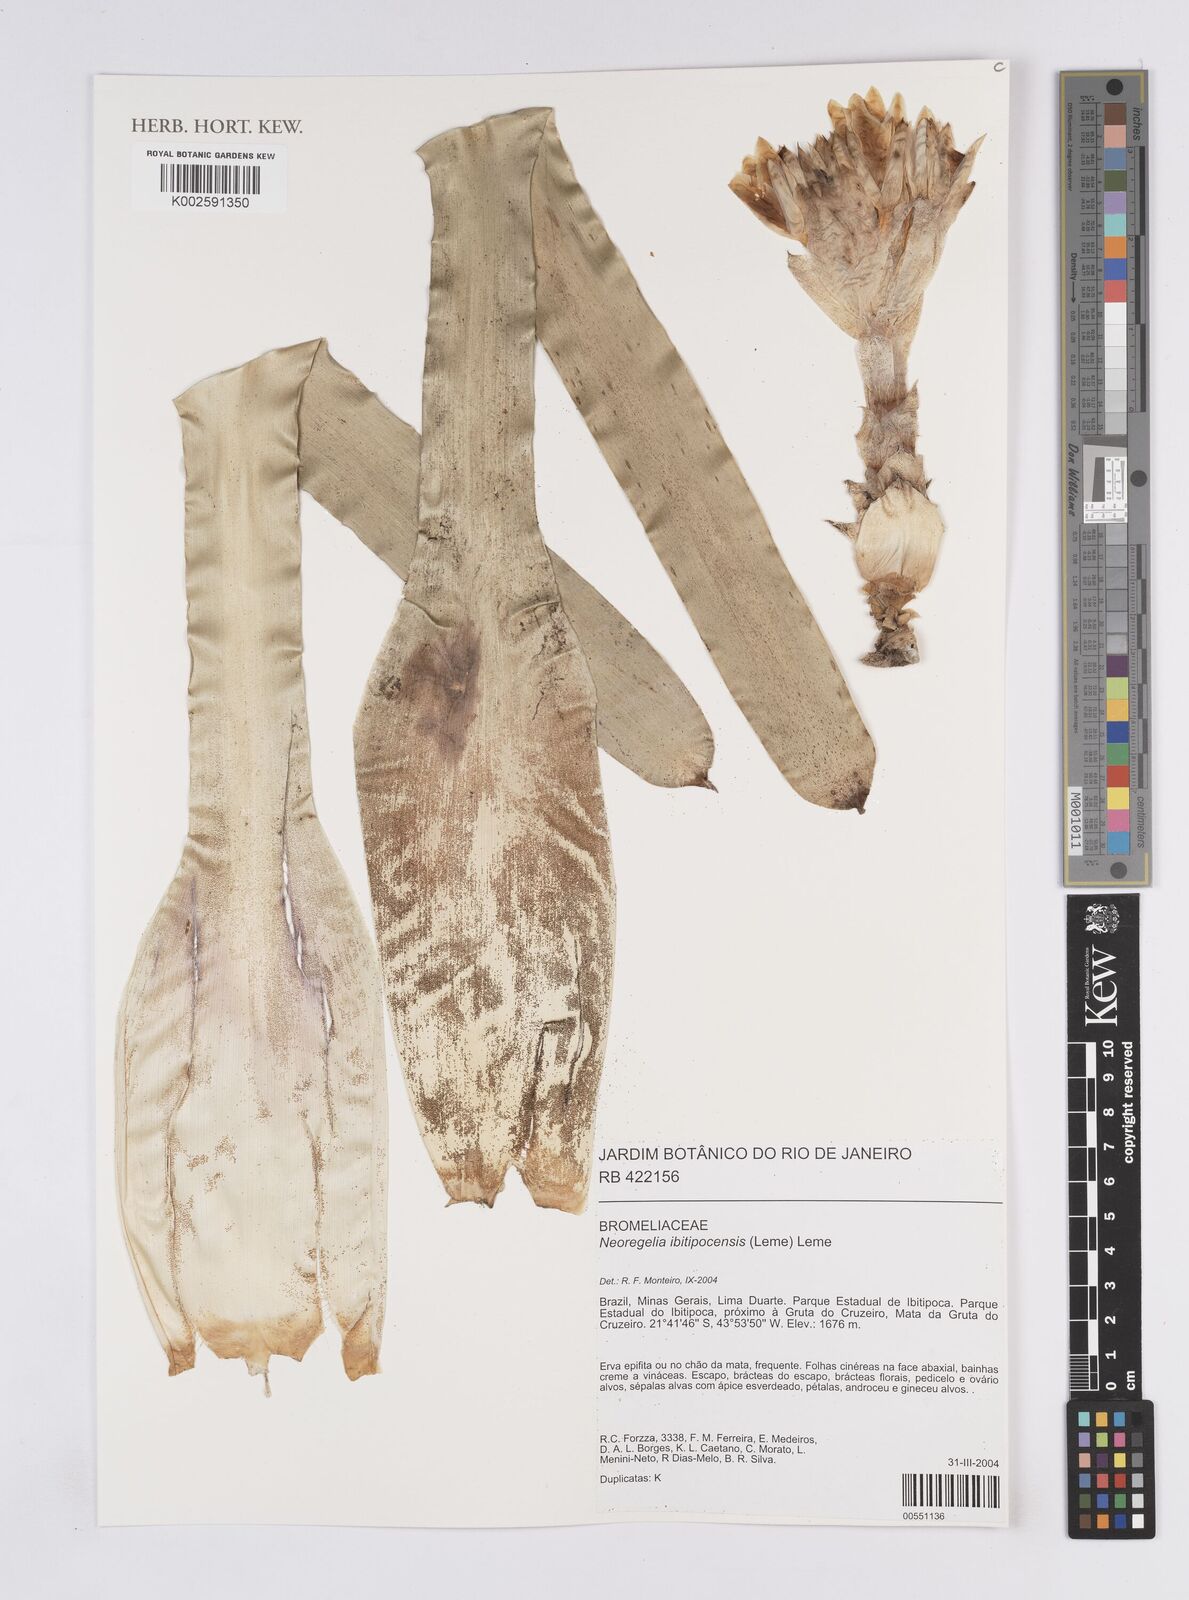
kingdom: Plantae
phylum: Tracheophyta
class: Liliopsida
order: Poales
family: Bromeliaceae
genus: Neoregelia
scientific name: Neoregelia ibitipocensis
